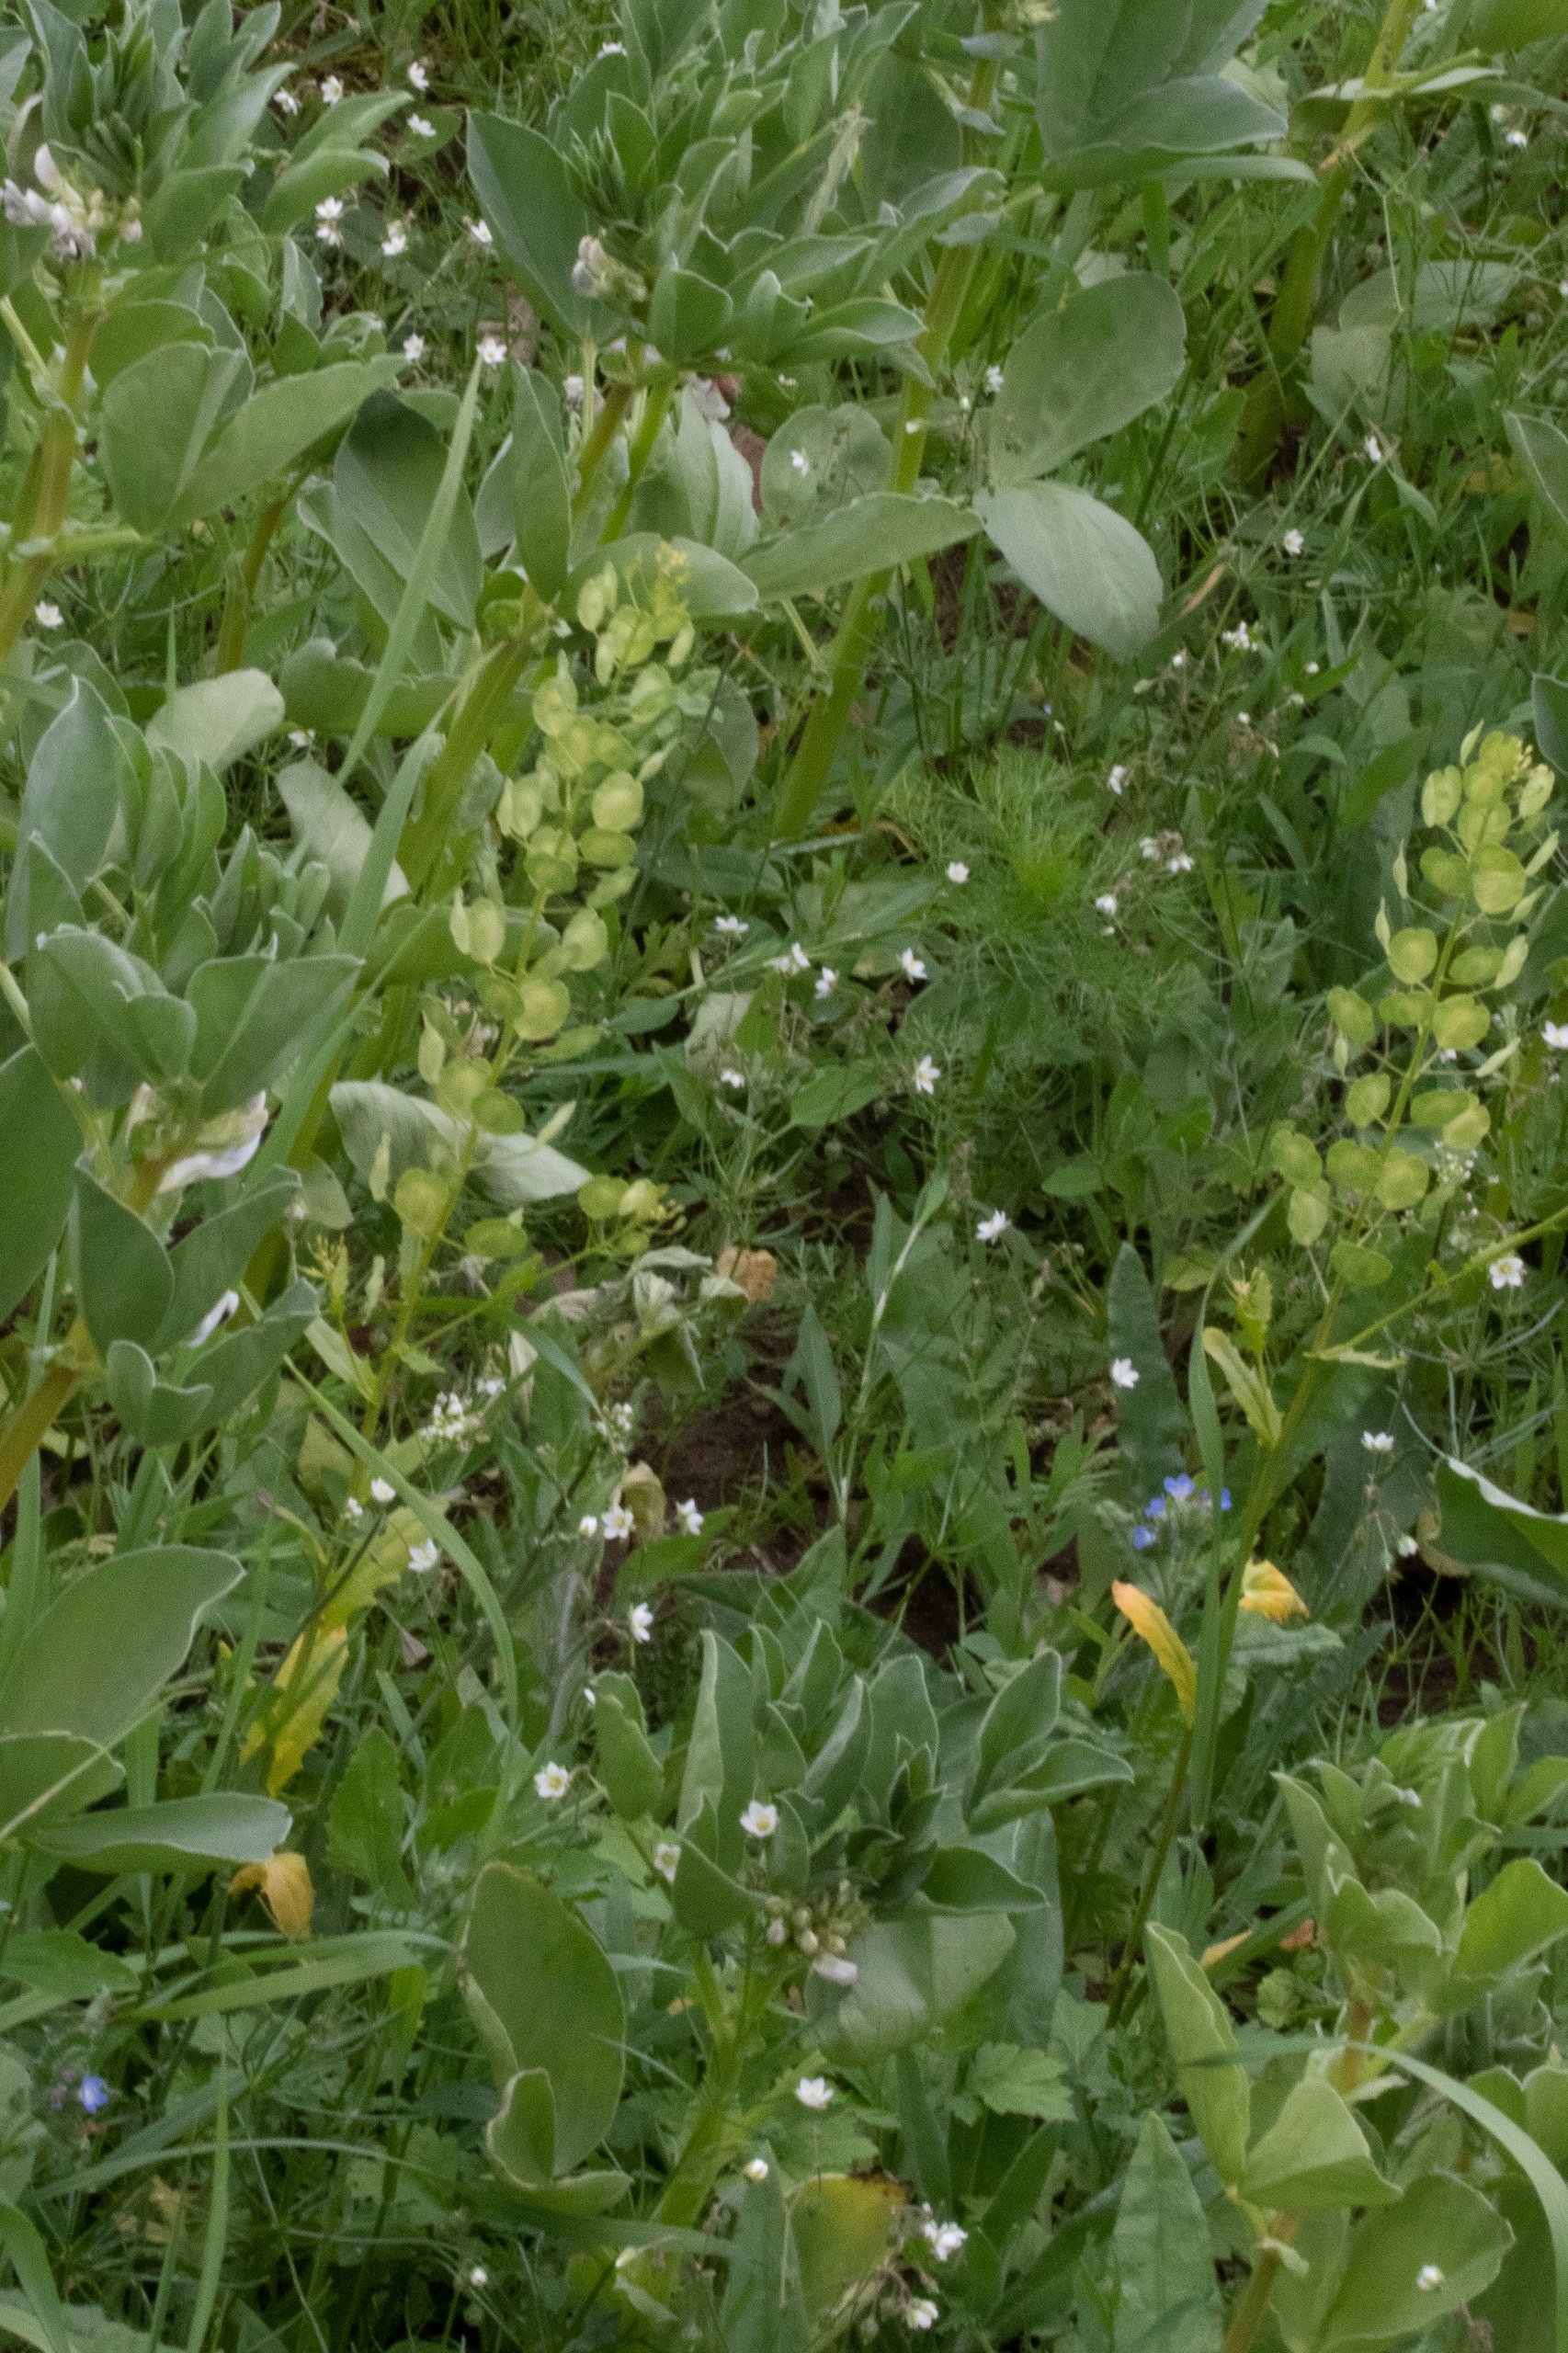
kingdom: Plantae
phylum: Tracheophyta
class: Magnoliopsida
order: Brassicales
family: Brassicaceae
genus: Thlaspi
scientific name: Thlaspi arvense
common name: Almindelig pengeurt
